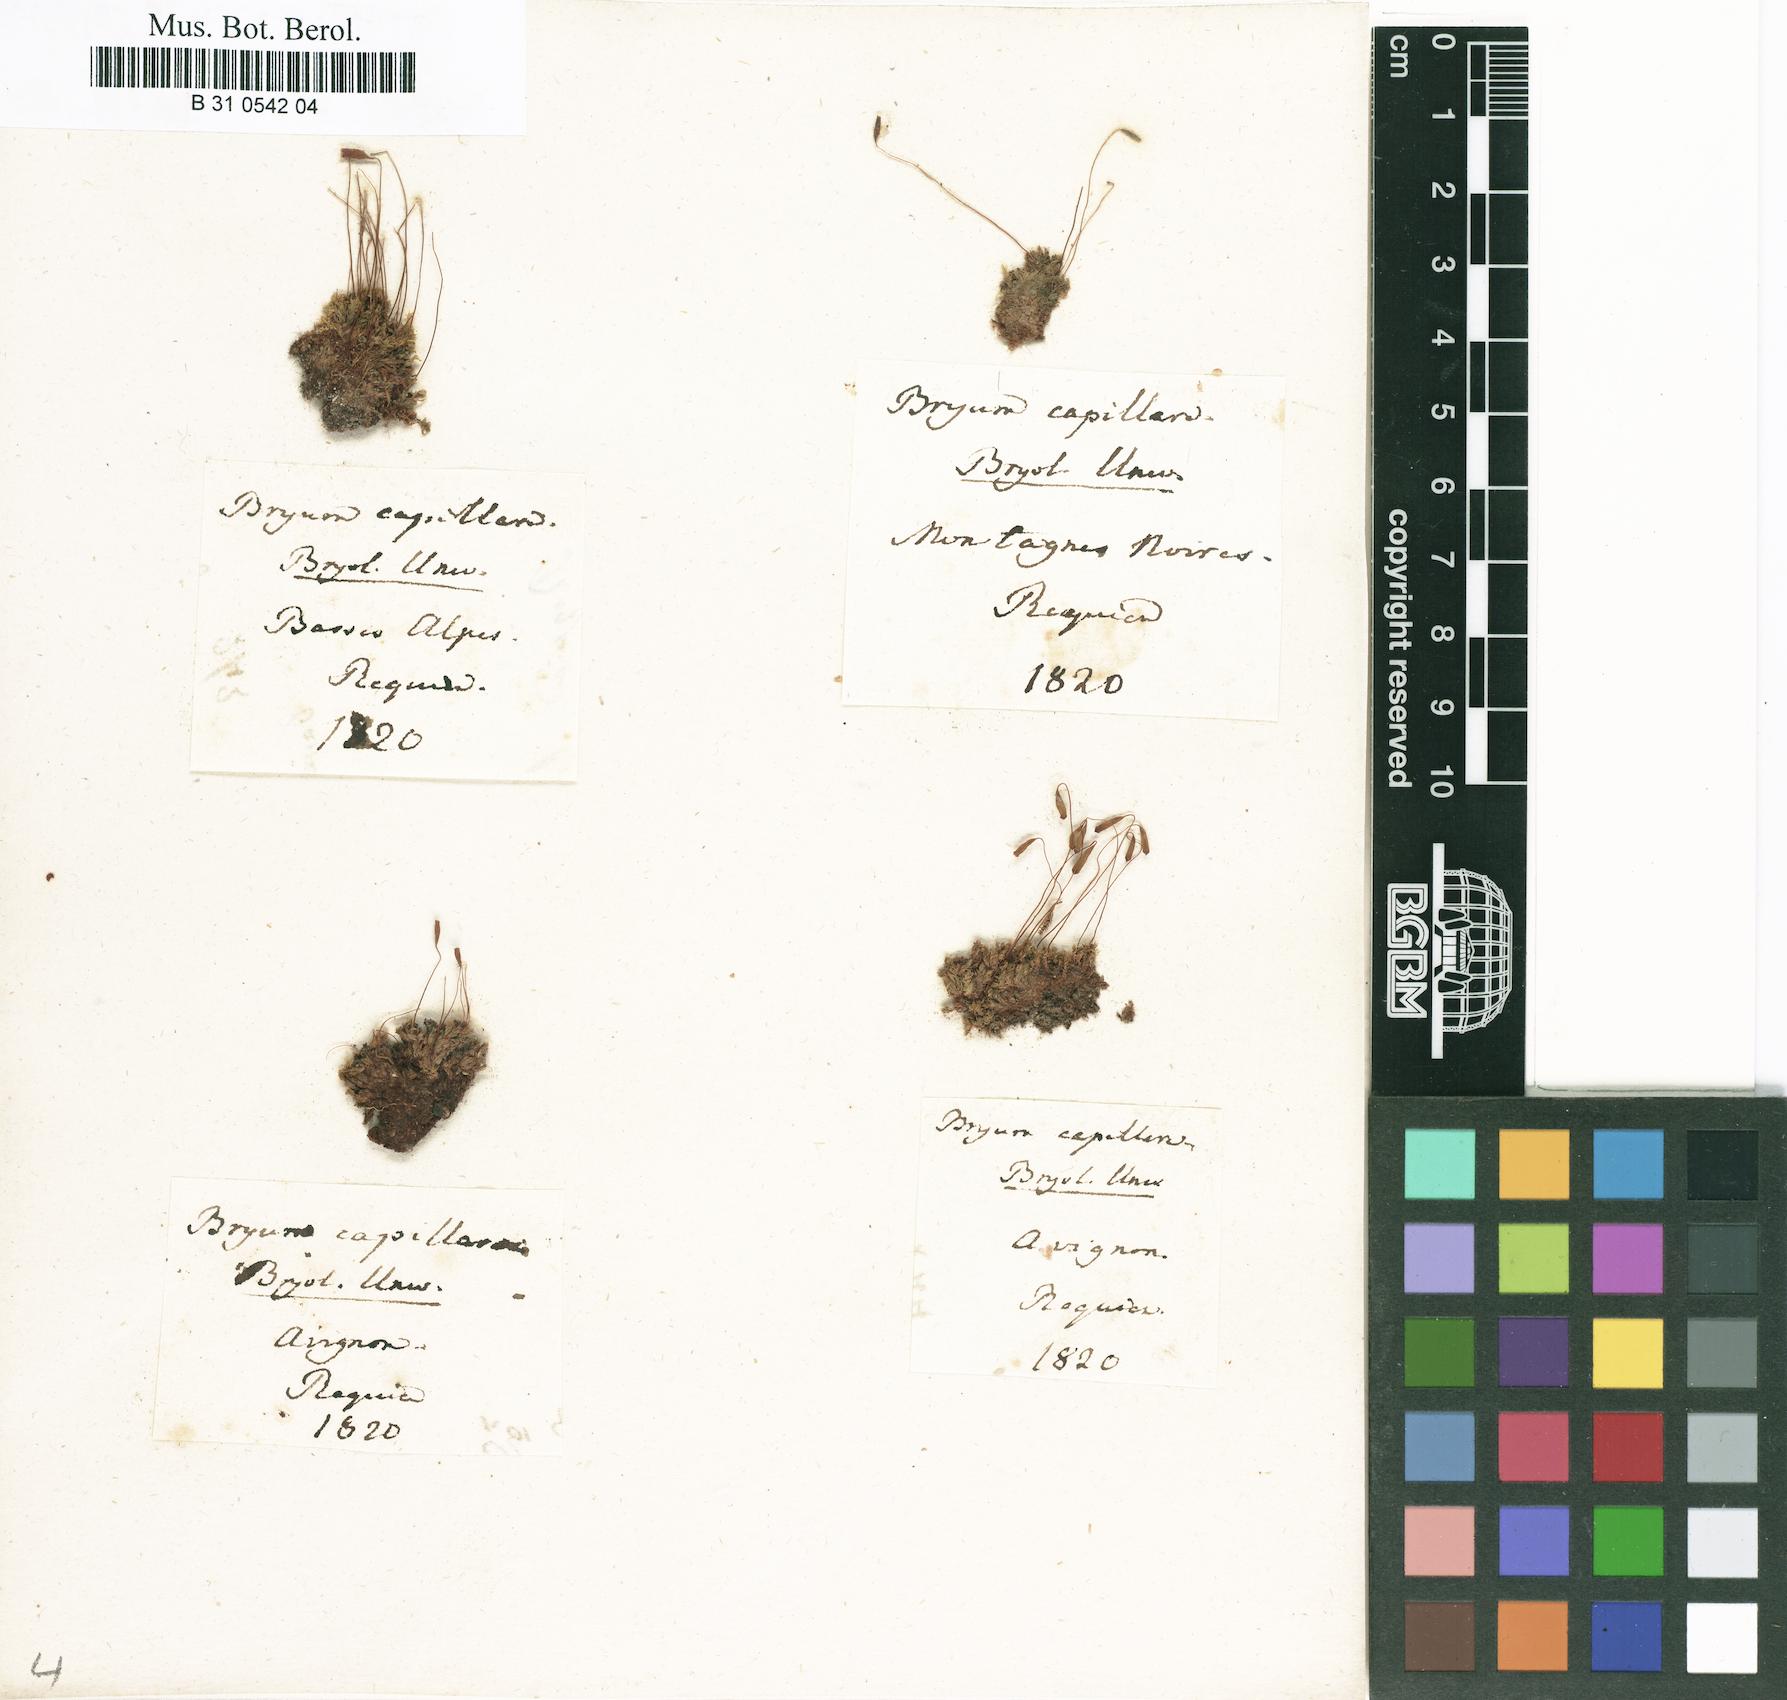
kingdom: Plantae
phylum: Bryophyta
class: Bryopsida
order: Bryales
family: Bryaceae
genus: Rosulabryum
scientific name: Rosulabryum capillare
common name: Capillary thread-moss
